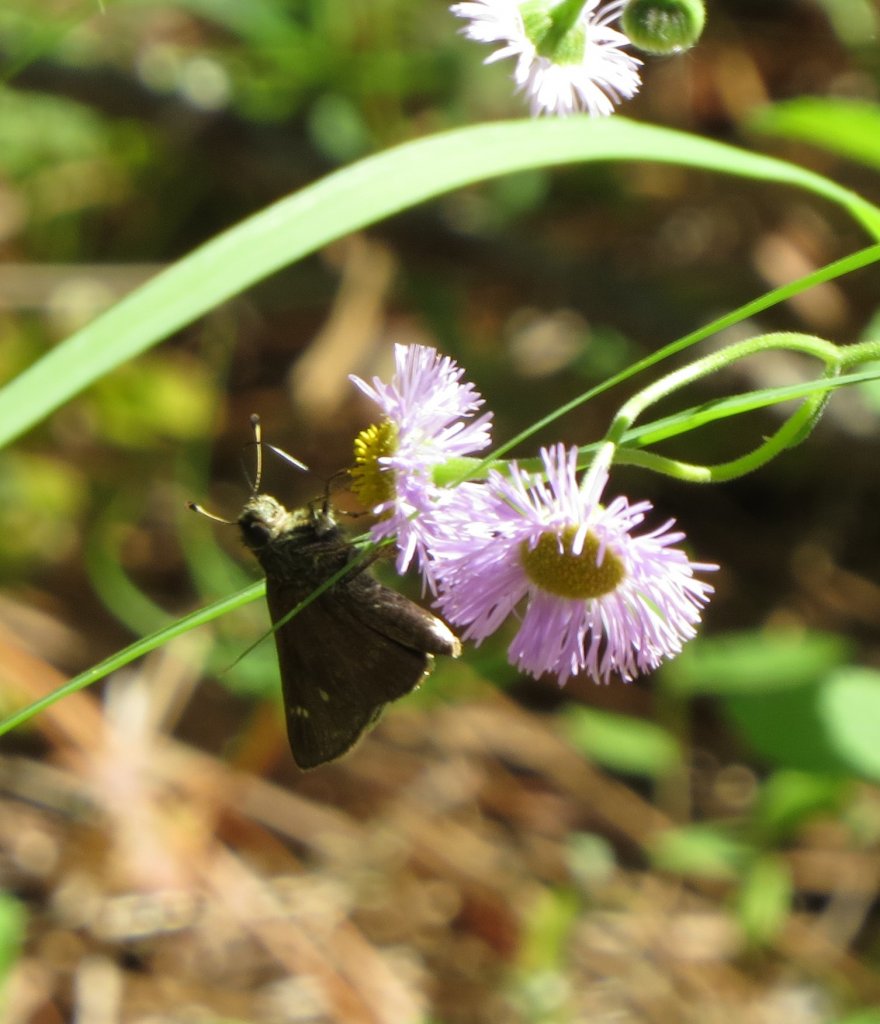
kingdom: Animalia
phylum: Arthropoda
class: Insecta
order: Lepidoptera
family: Hesperiidae
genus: Lerema
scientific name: Lerema accius
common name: Clouded Skipper
